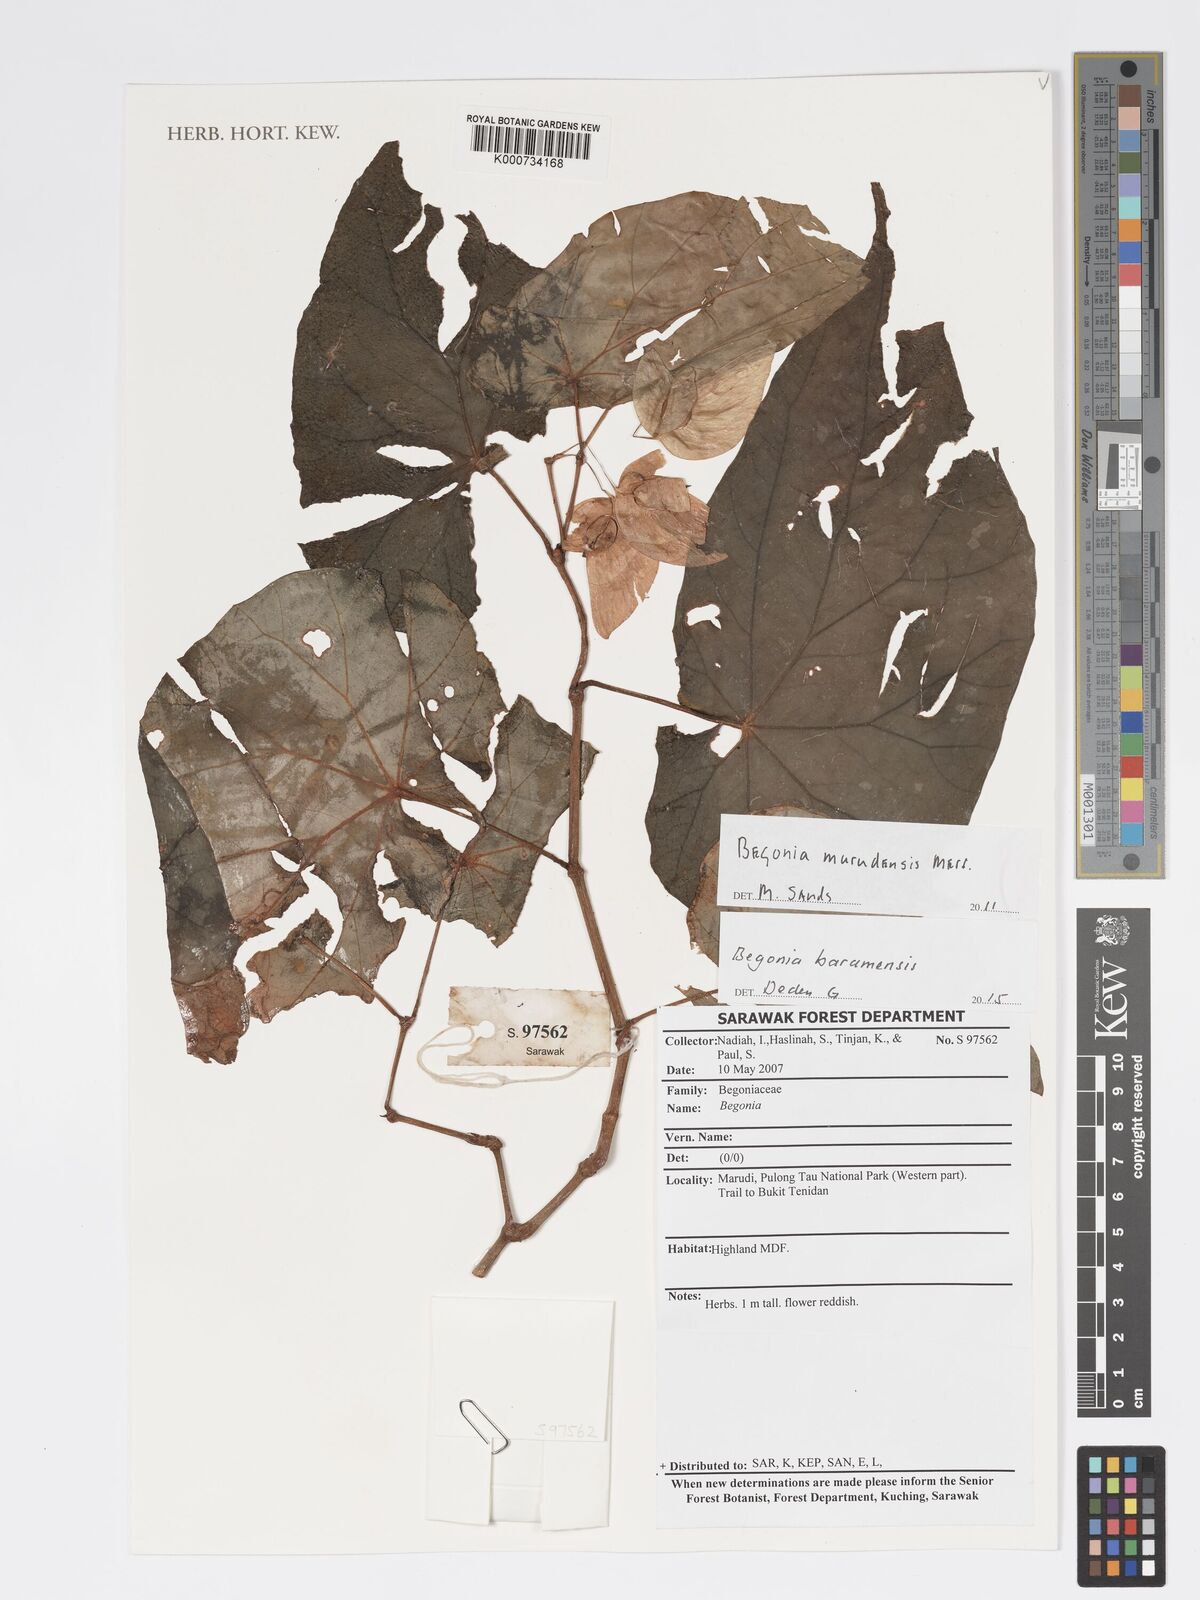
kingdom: Plantae
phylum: Tracheophyta
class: Magnoliopsida
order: Cucurbitales
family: Begoniaceae
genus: Begonia
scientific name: Begonia murudensis
